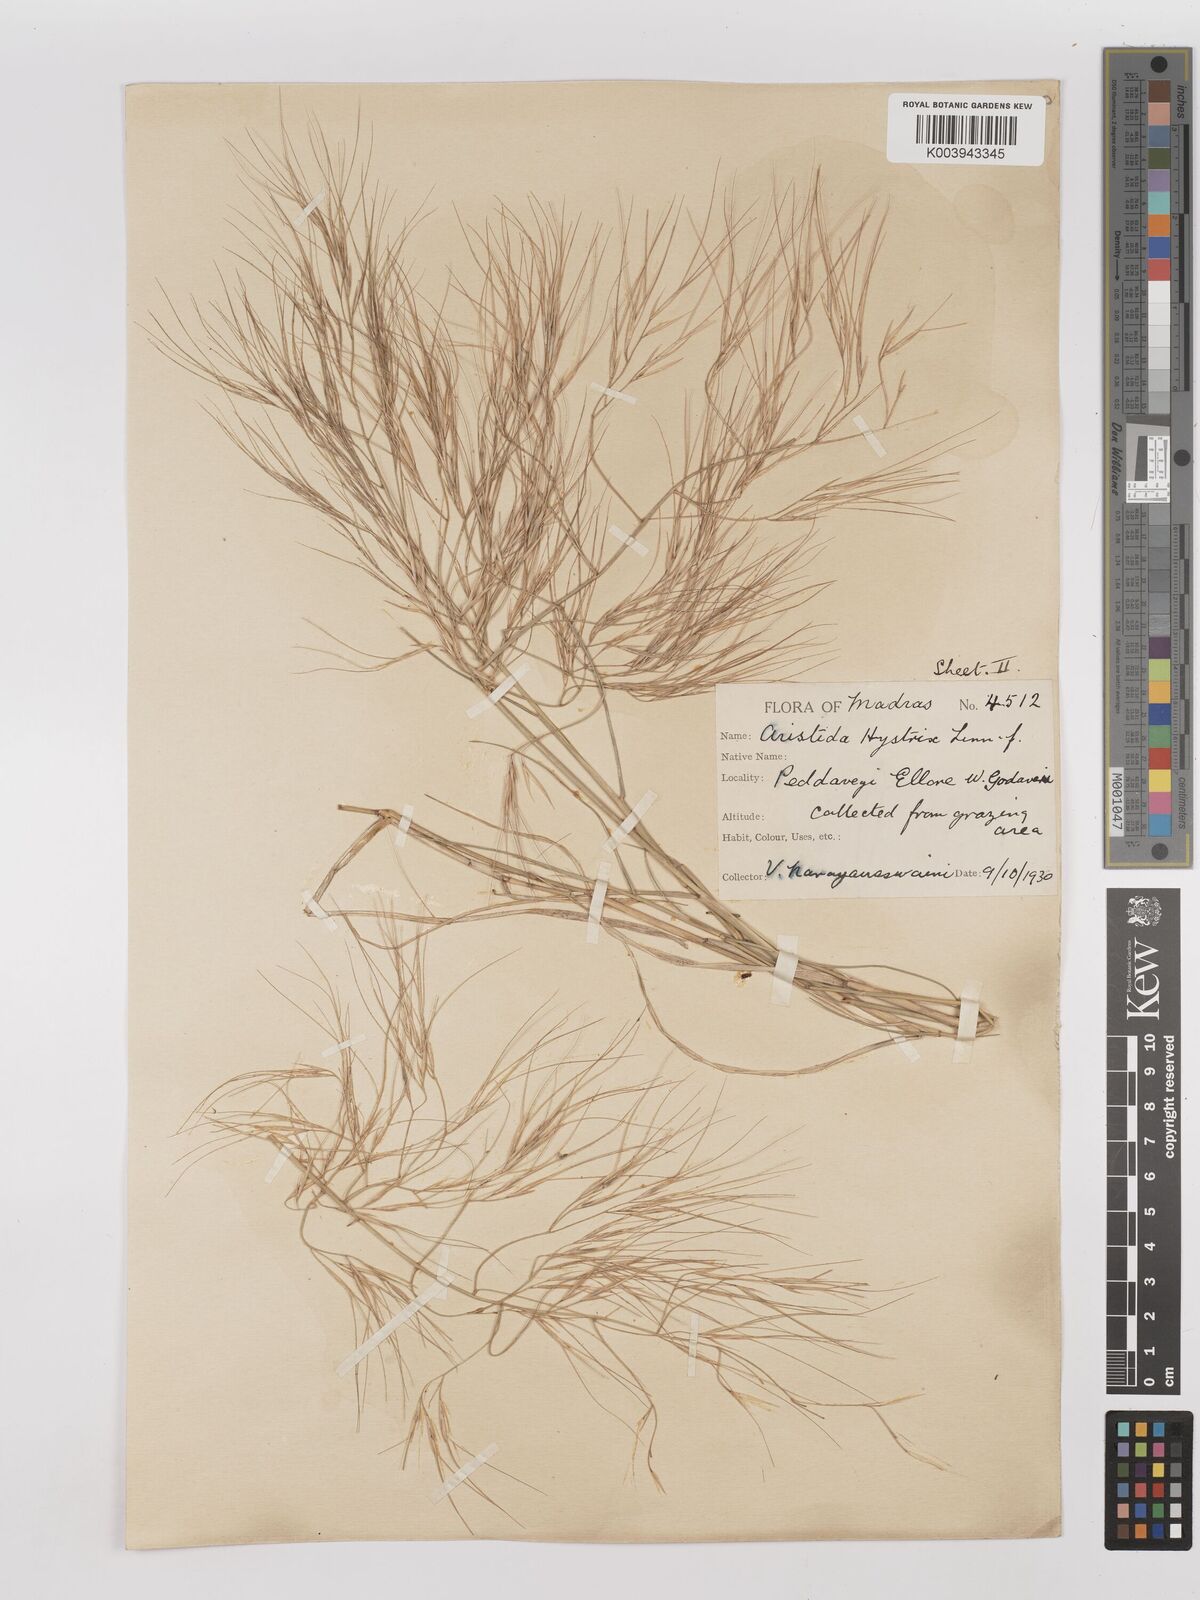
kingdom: Plantae
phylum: Tracheophyta
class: Liliopsida
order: Poales
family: Poaceae
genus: Aristida
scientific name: Aristida hystrix
